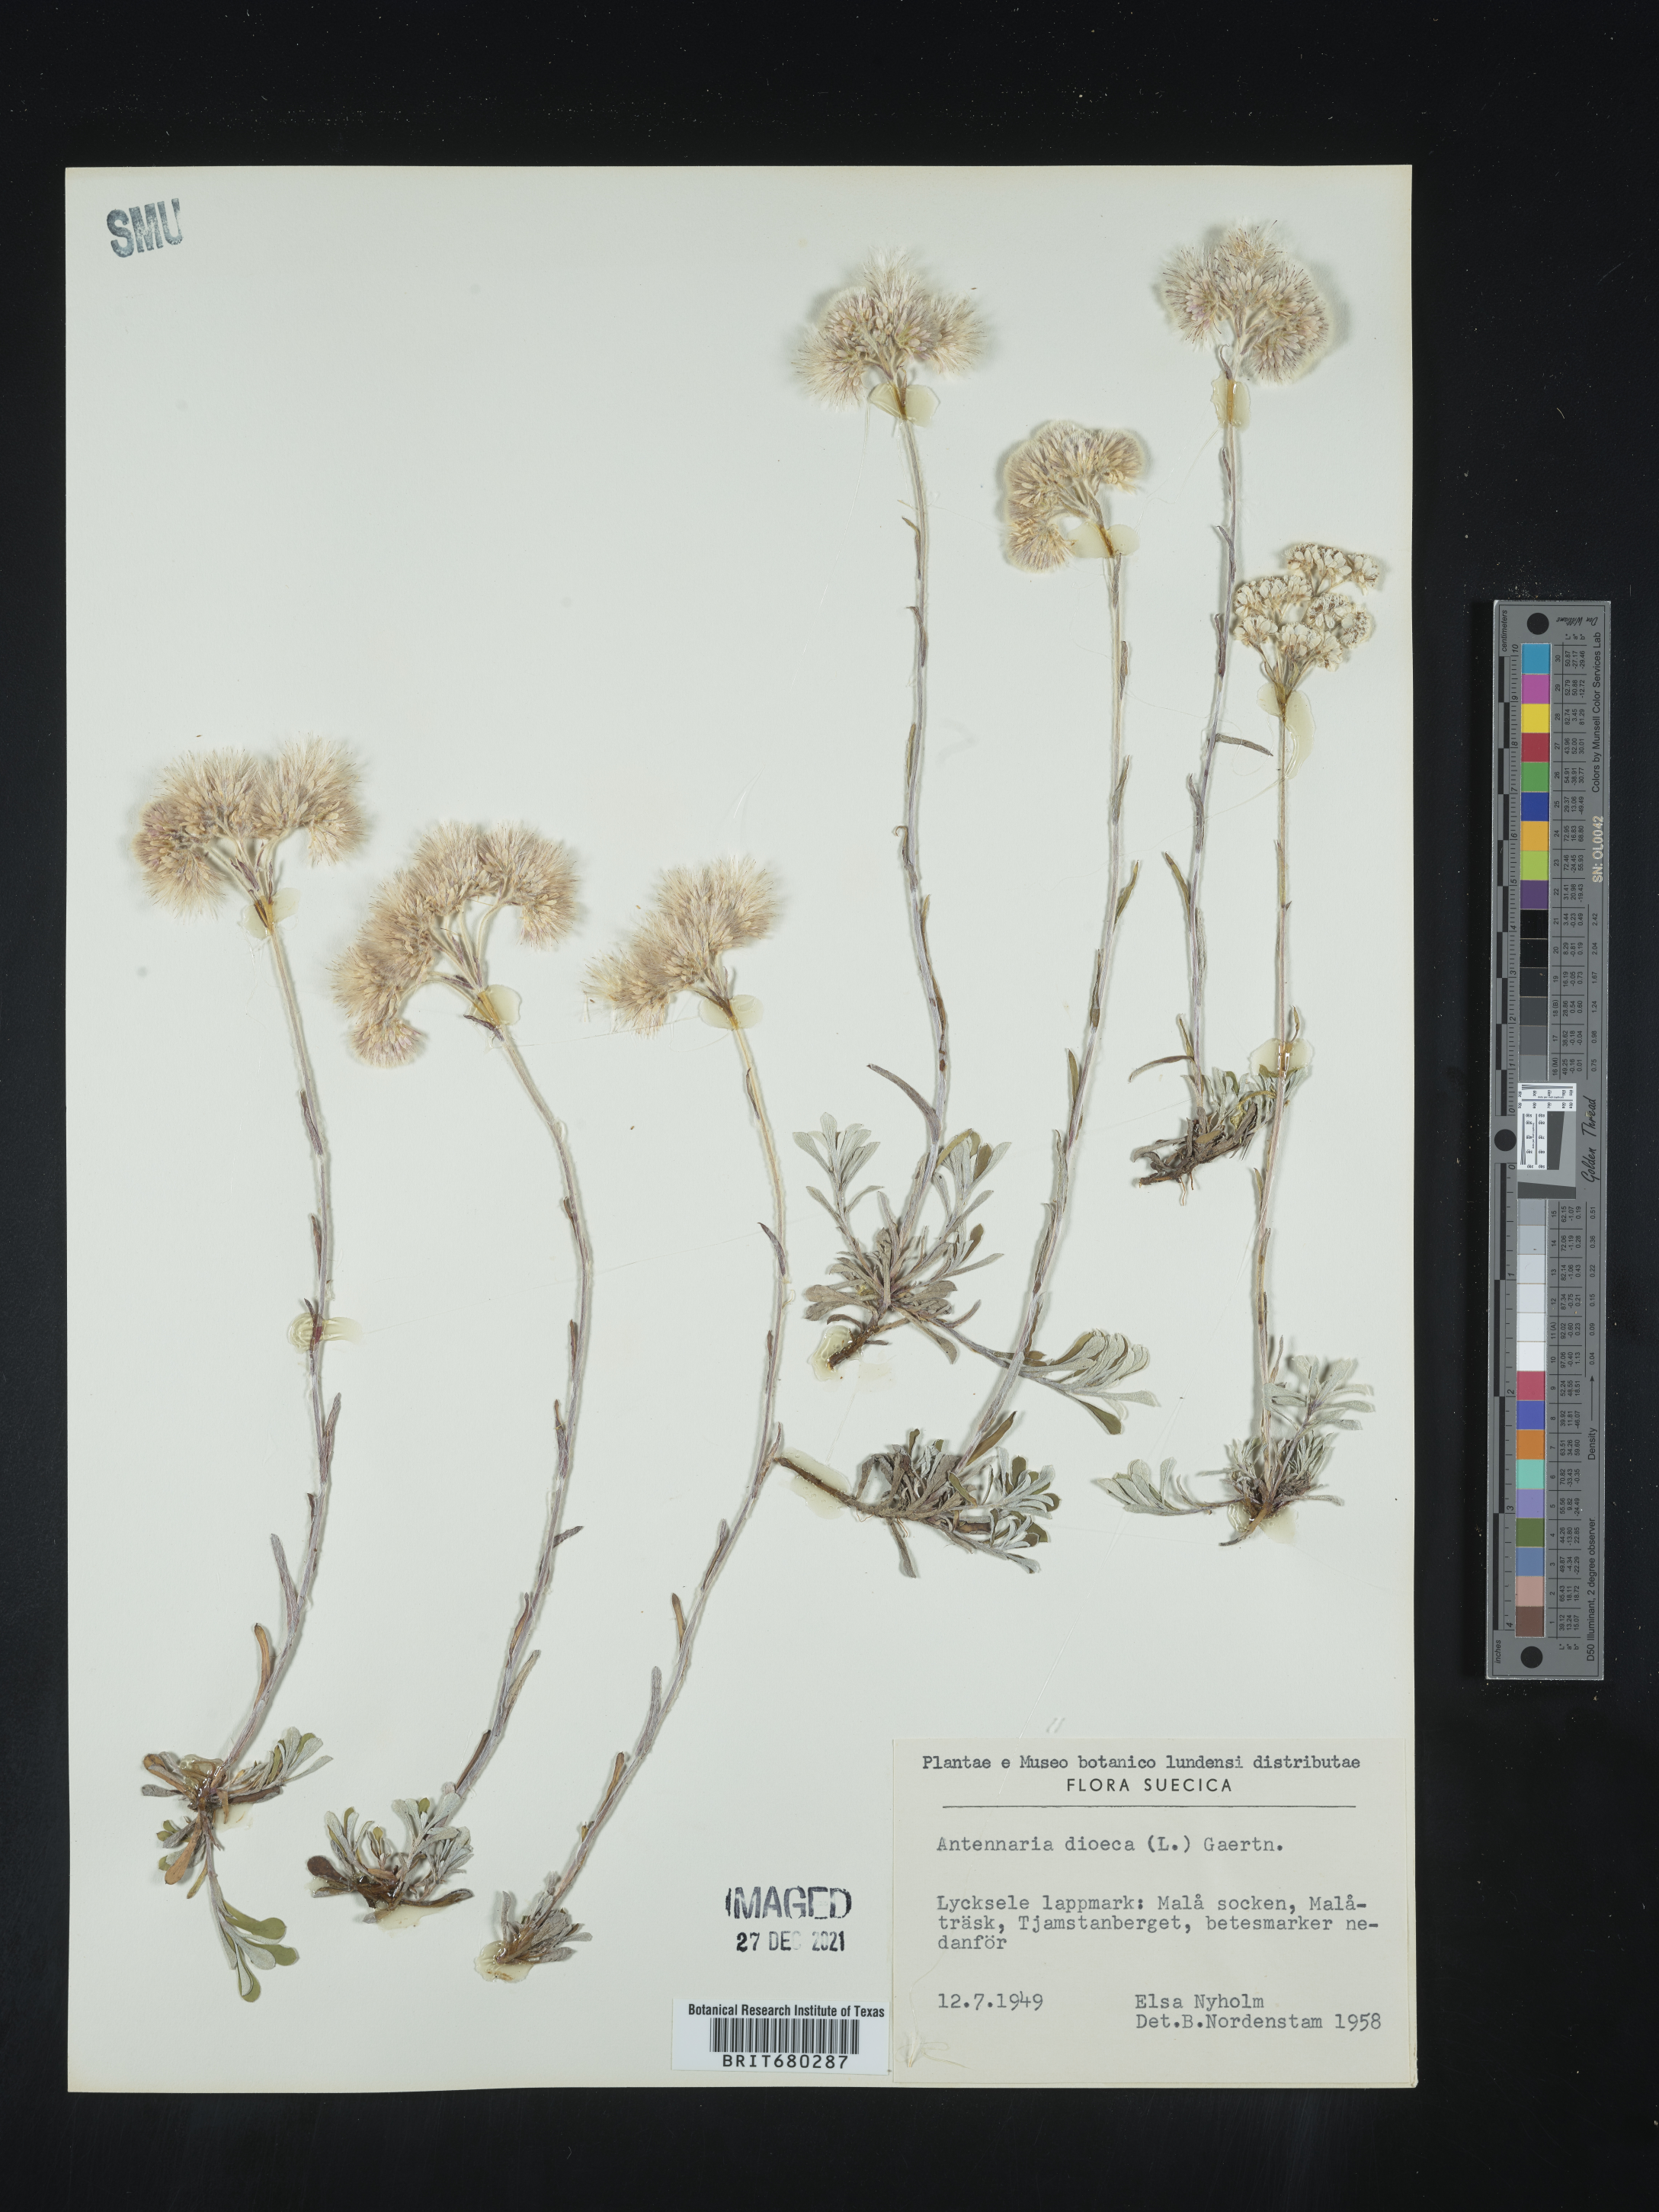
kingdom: Plantae
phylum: Tracheophyta
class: Magnoliopsida
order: Asterales
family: Asteraceae
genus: Antennaria
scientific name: Antennaria dioica
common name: Mountain everlasting
